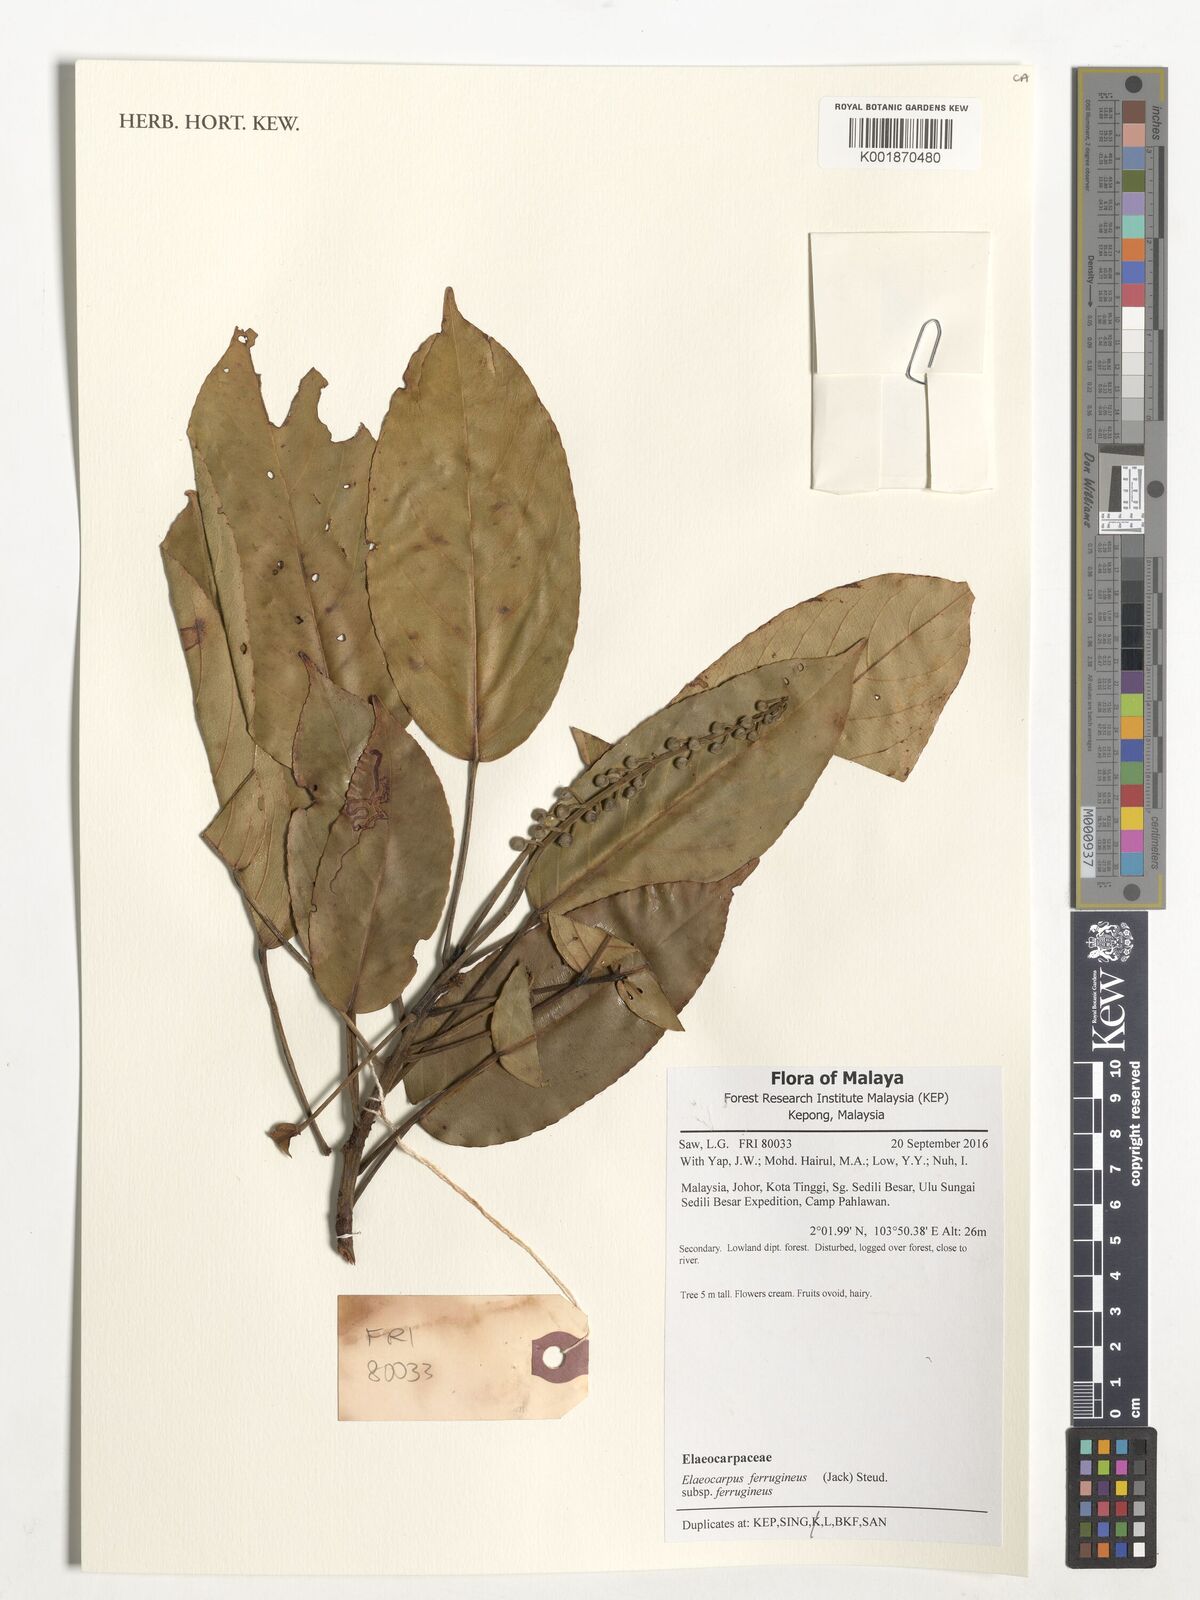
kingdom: Plantae
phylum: Tracheophyta
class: Magnoliopsida
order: Oxalidales
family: Elaeocarpaceae
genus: Elaeocarpus
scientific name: Elaeocarpus ferrugineus
